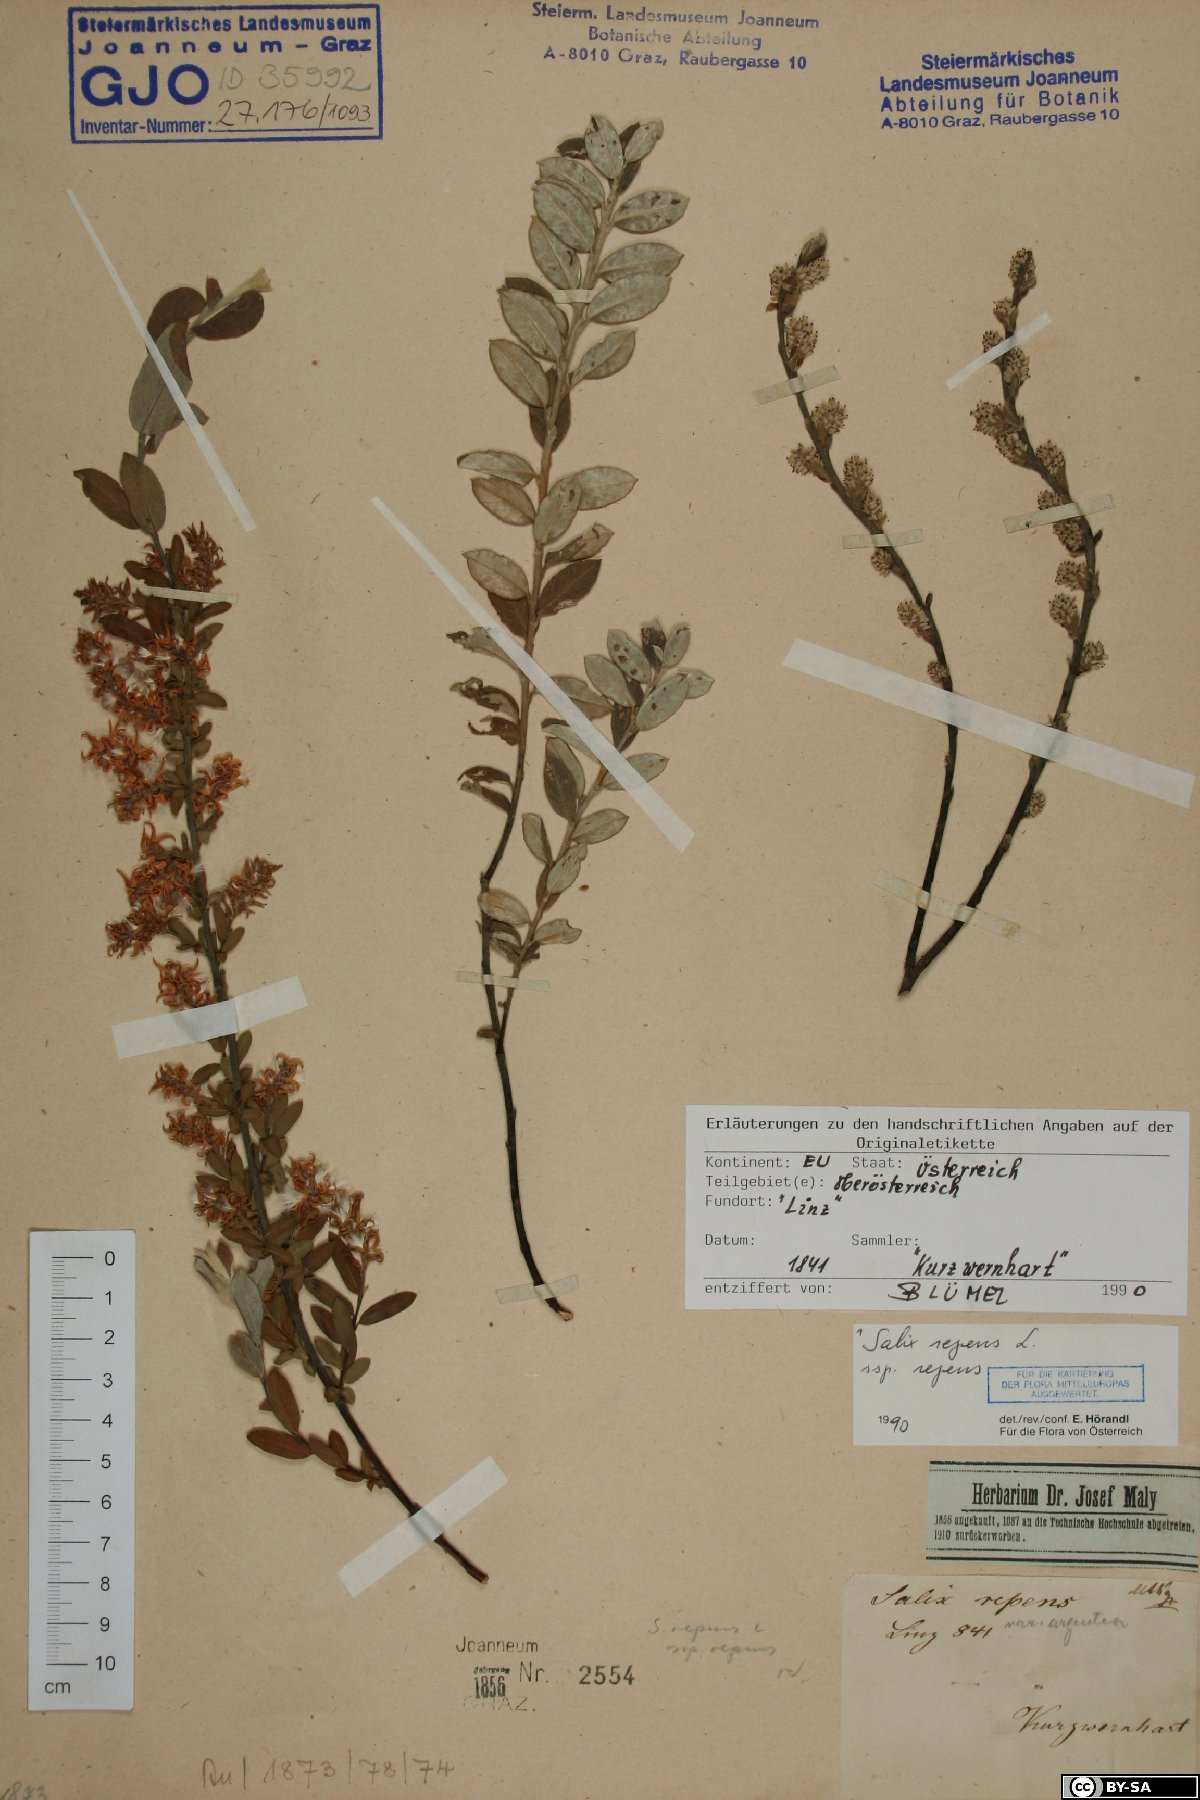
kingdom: Plantae
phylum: Tracheophyta
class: Magnoliopsida
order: Malpighiales
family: Salicaceae
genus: Salix
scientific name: Salix repens
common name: Creeping willow
